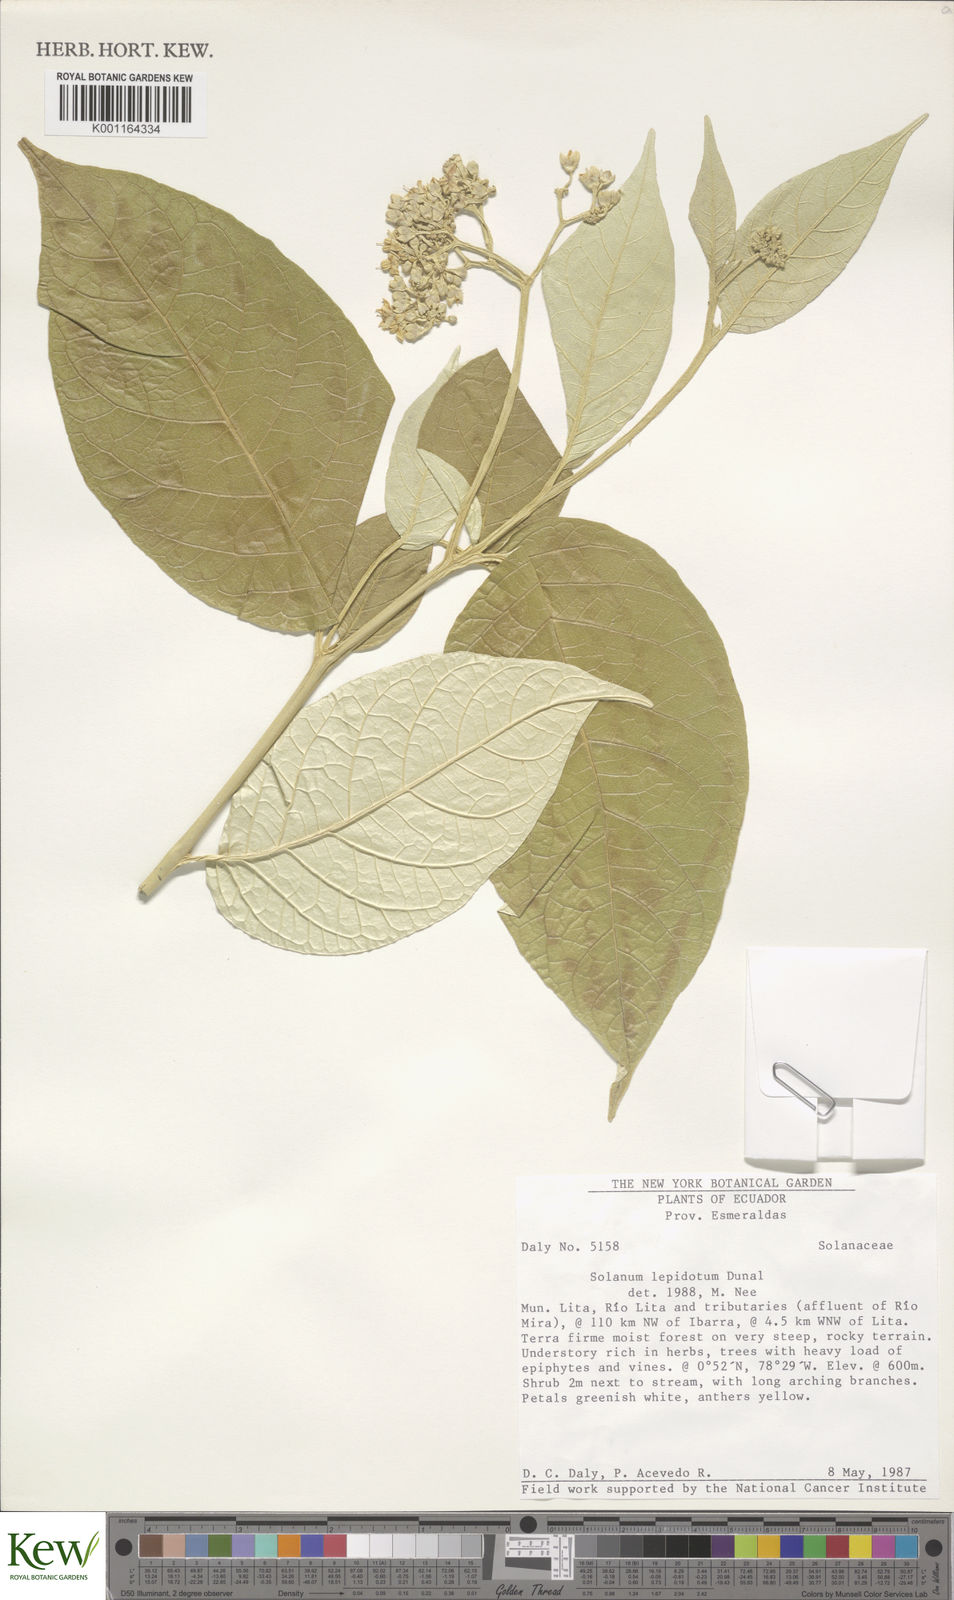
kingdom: Plantae
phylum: Tracheophyta
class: Magnoliopsida
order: Solanales
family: Solanaceae
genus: Solanum
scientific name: Solanum lepidotum
